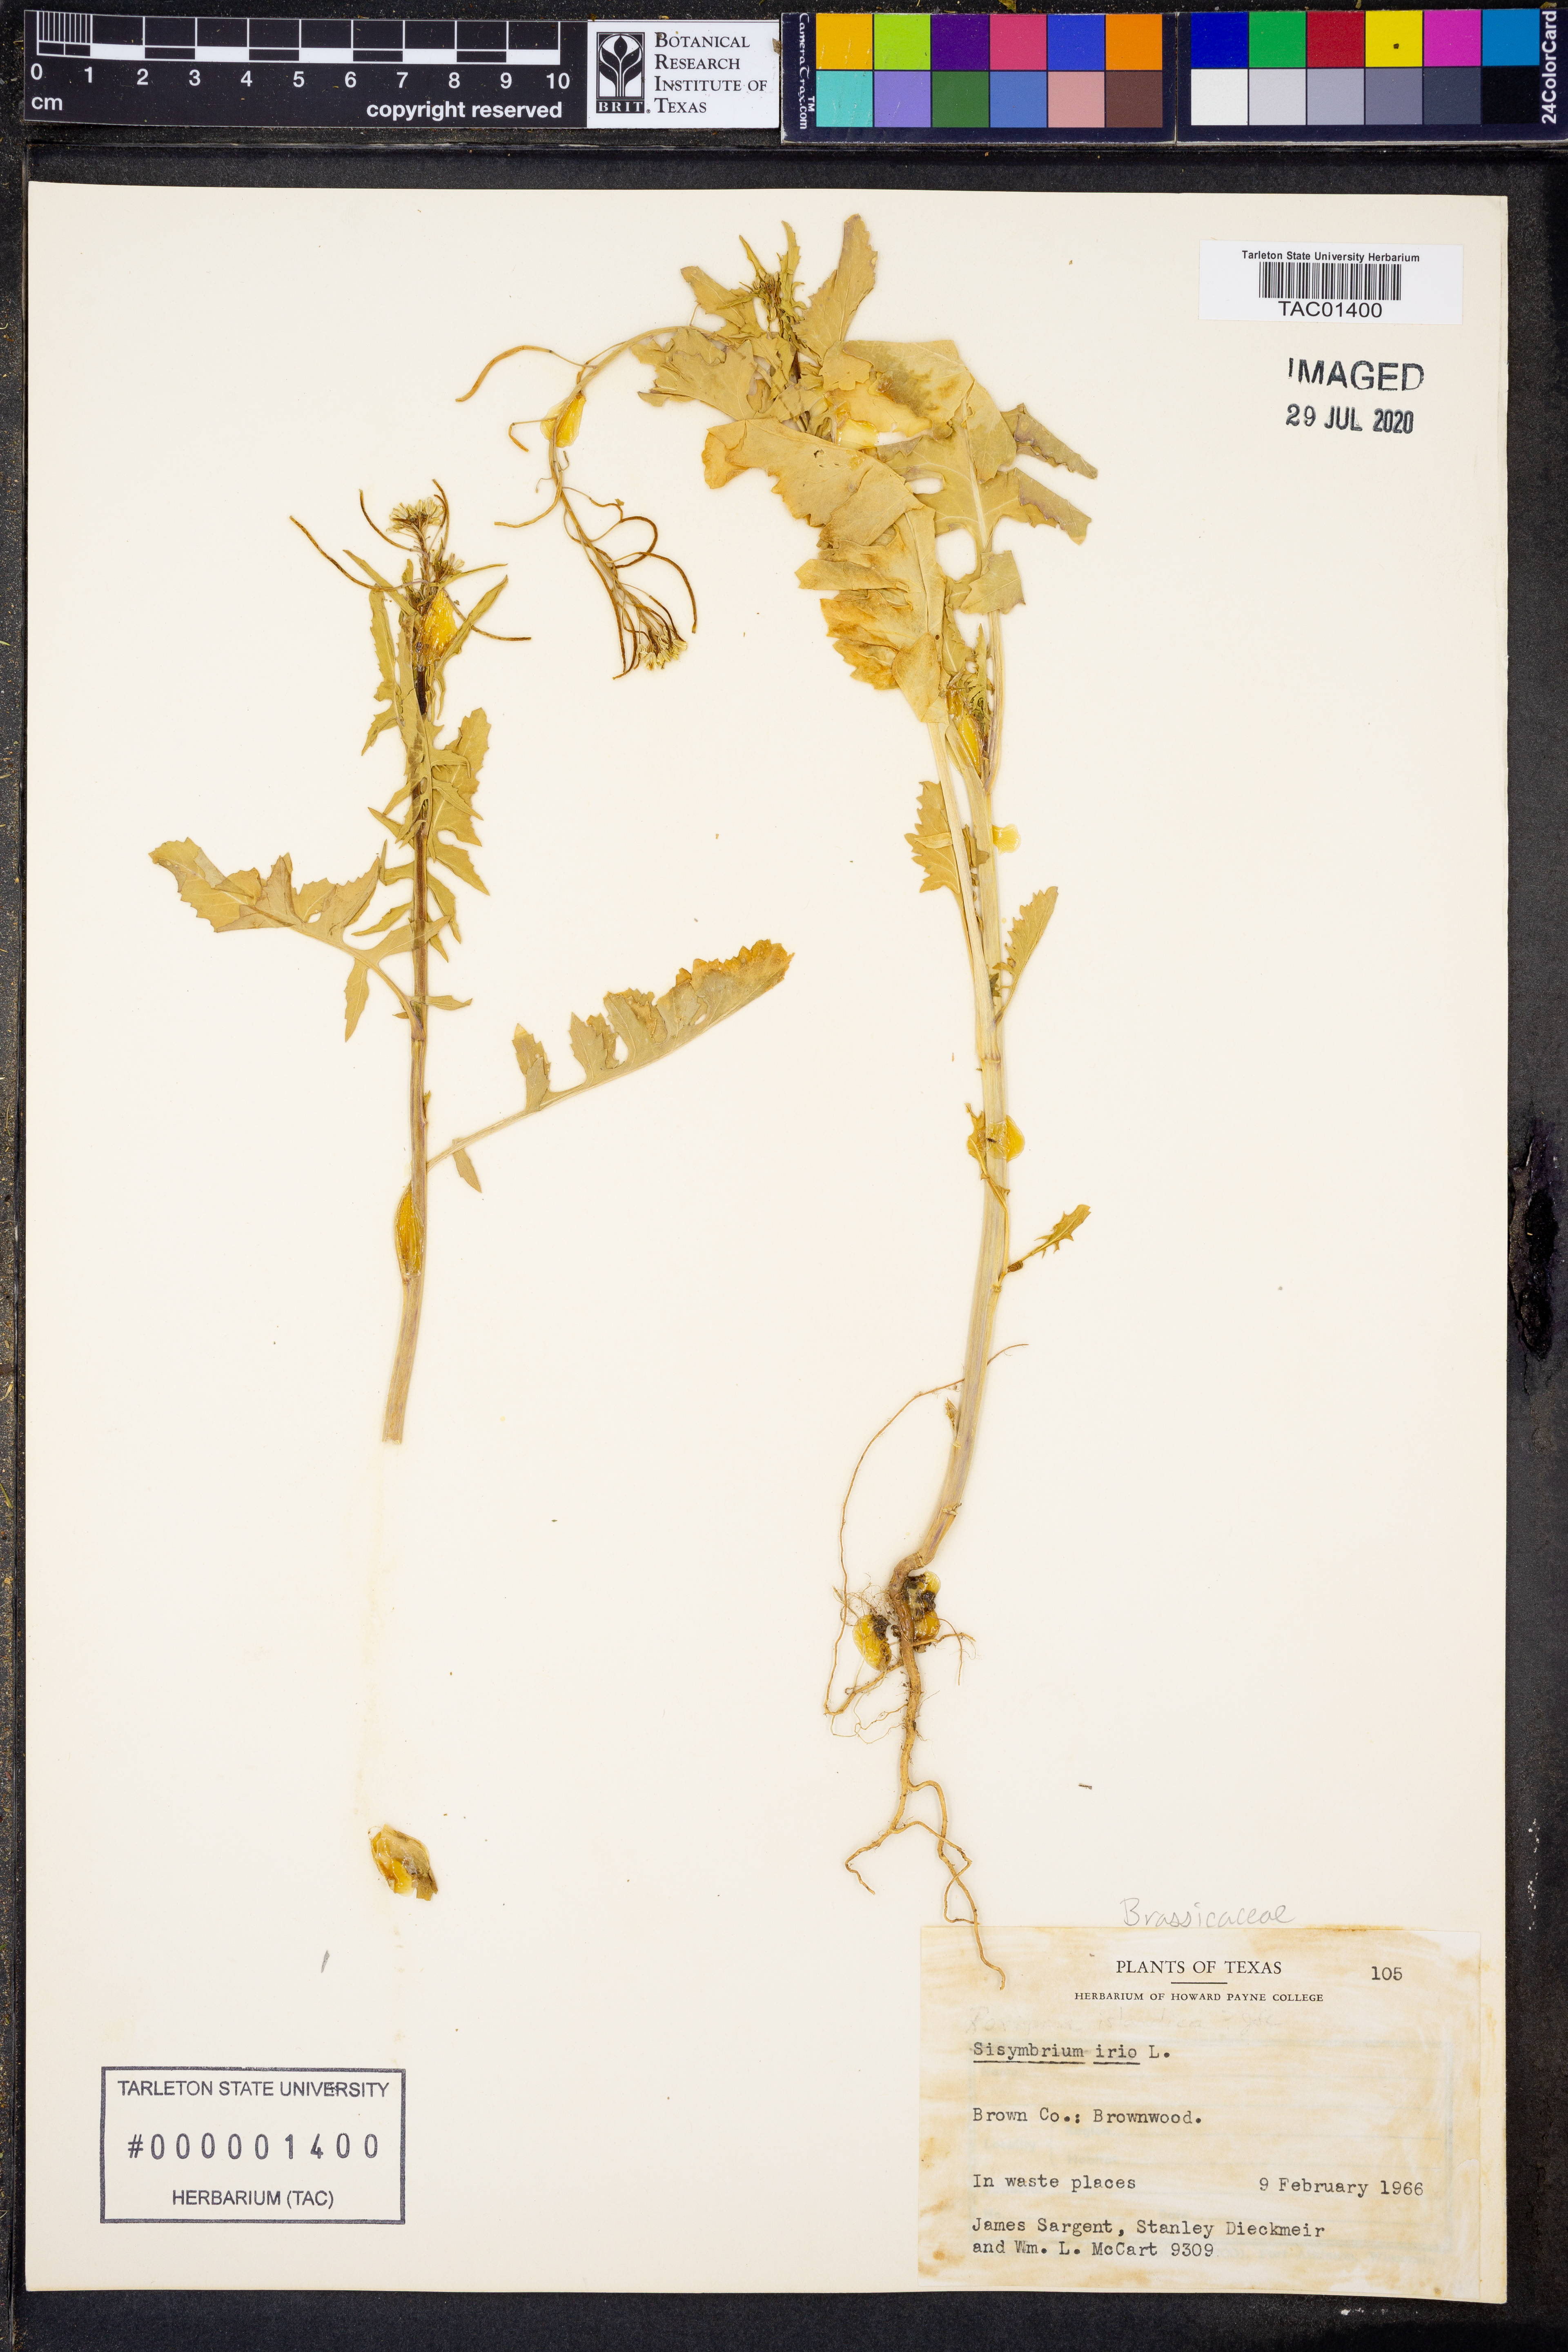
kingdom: Plantae
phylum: Tracheophyta
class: Magnoliopsida
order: Brassicales
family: Brassicaceae
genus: Sisymbrium
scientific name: Sisymbrium irio
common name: London rocket
